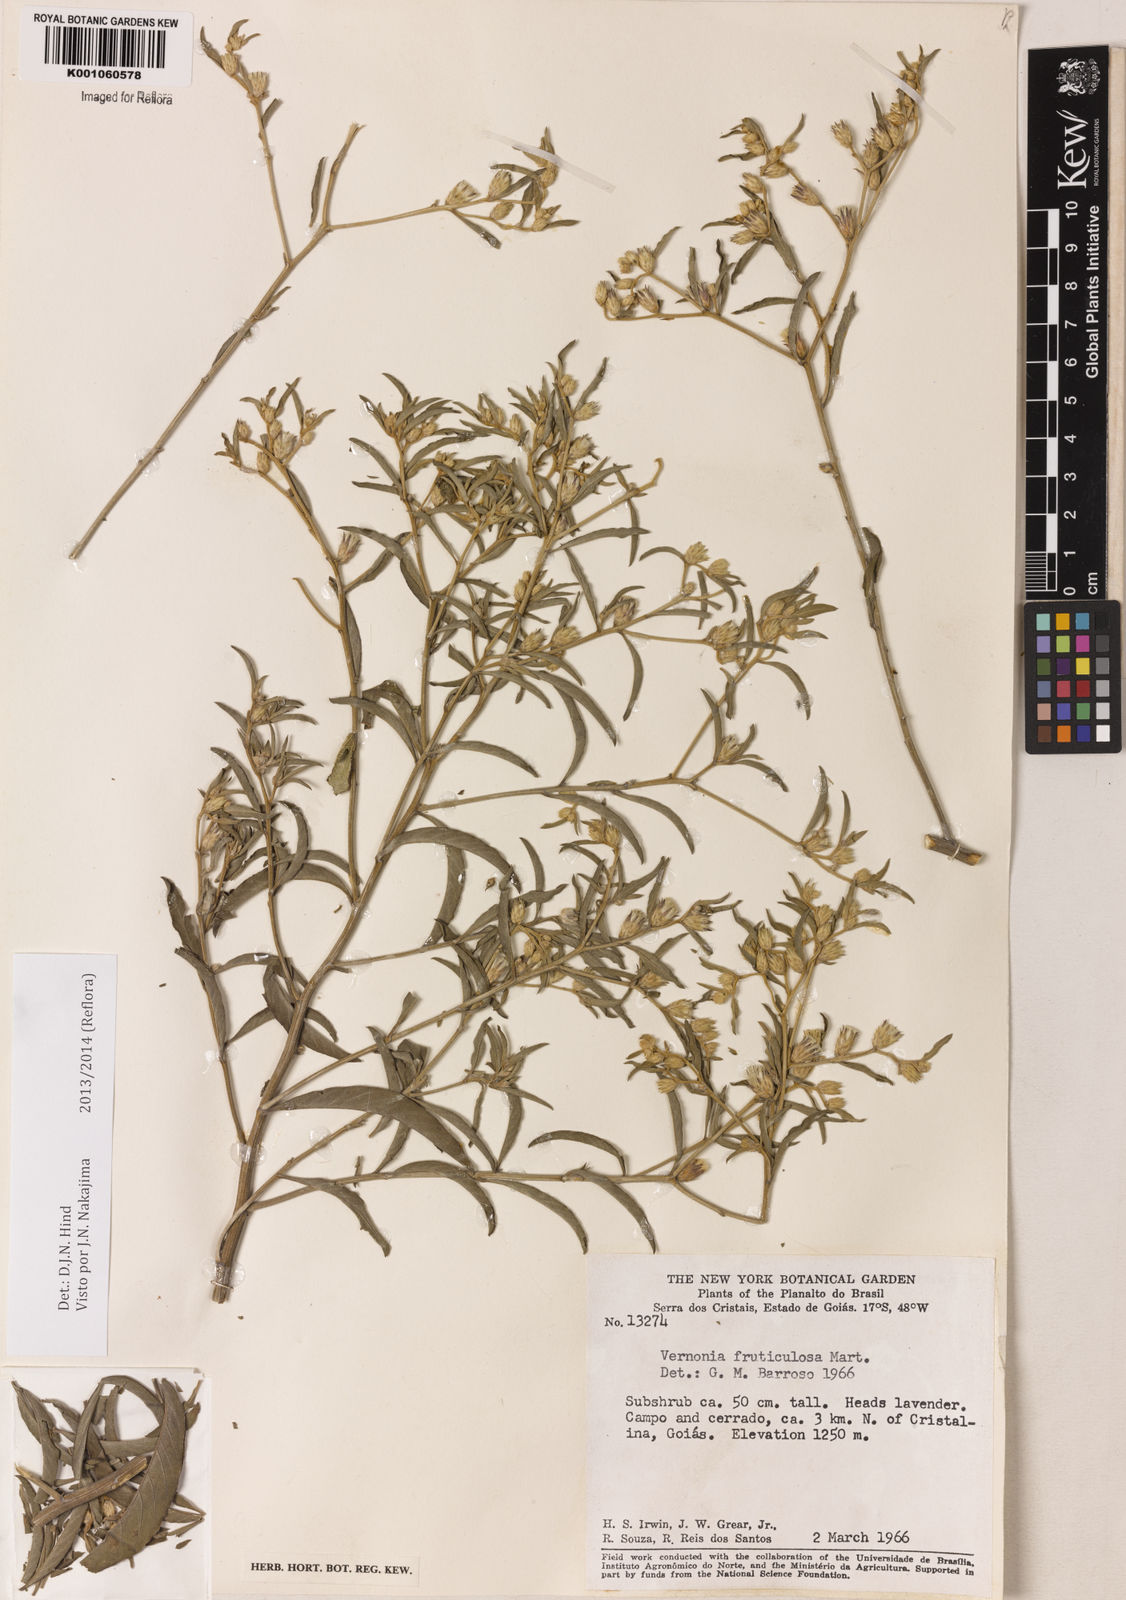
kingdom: Plantae
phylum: Tracheophyta
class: Magnoliopsida
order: Asterales
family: Asteraceae
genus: Lepidaploa
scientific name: Lepidaploa rufogrisea
